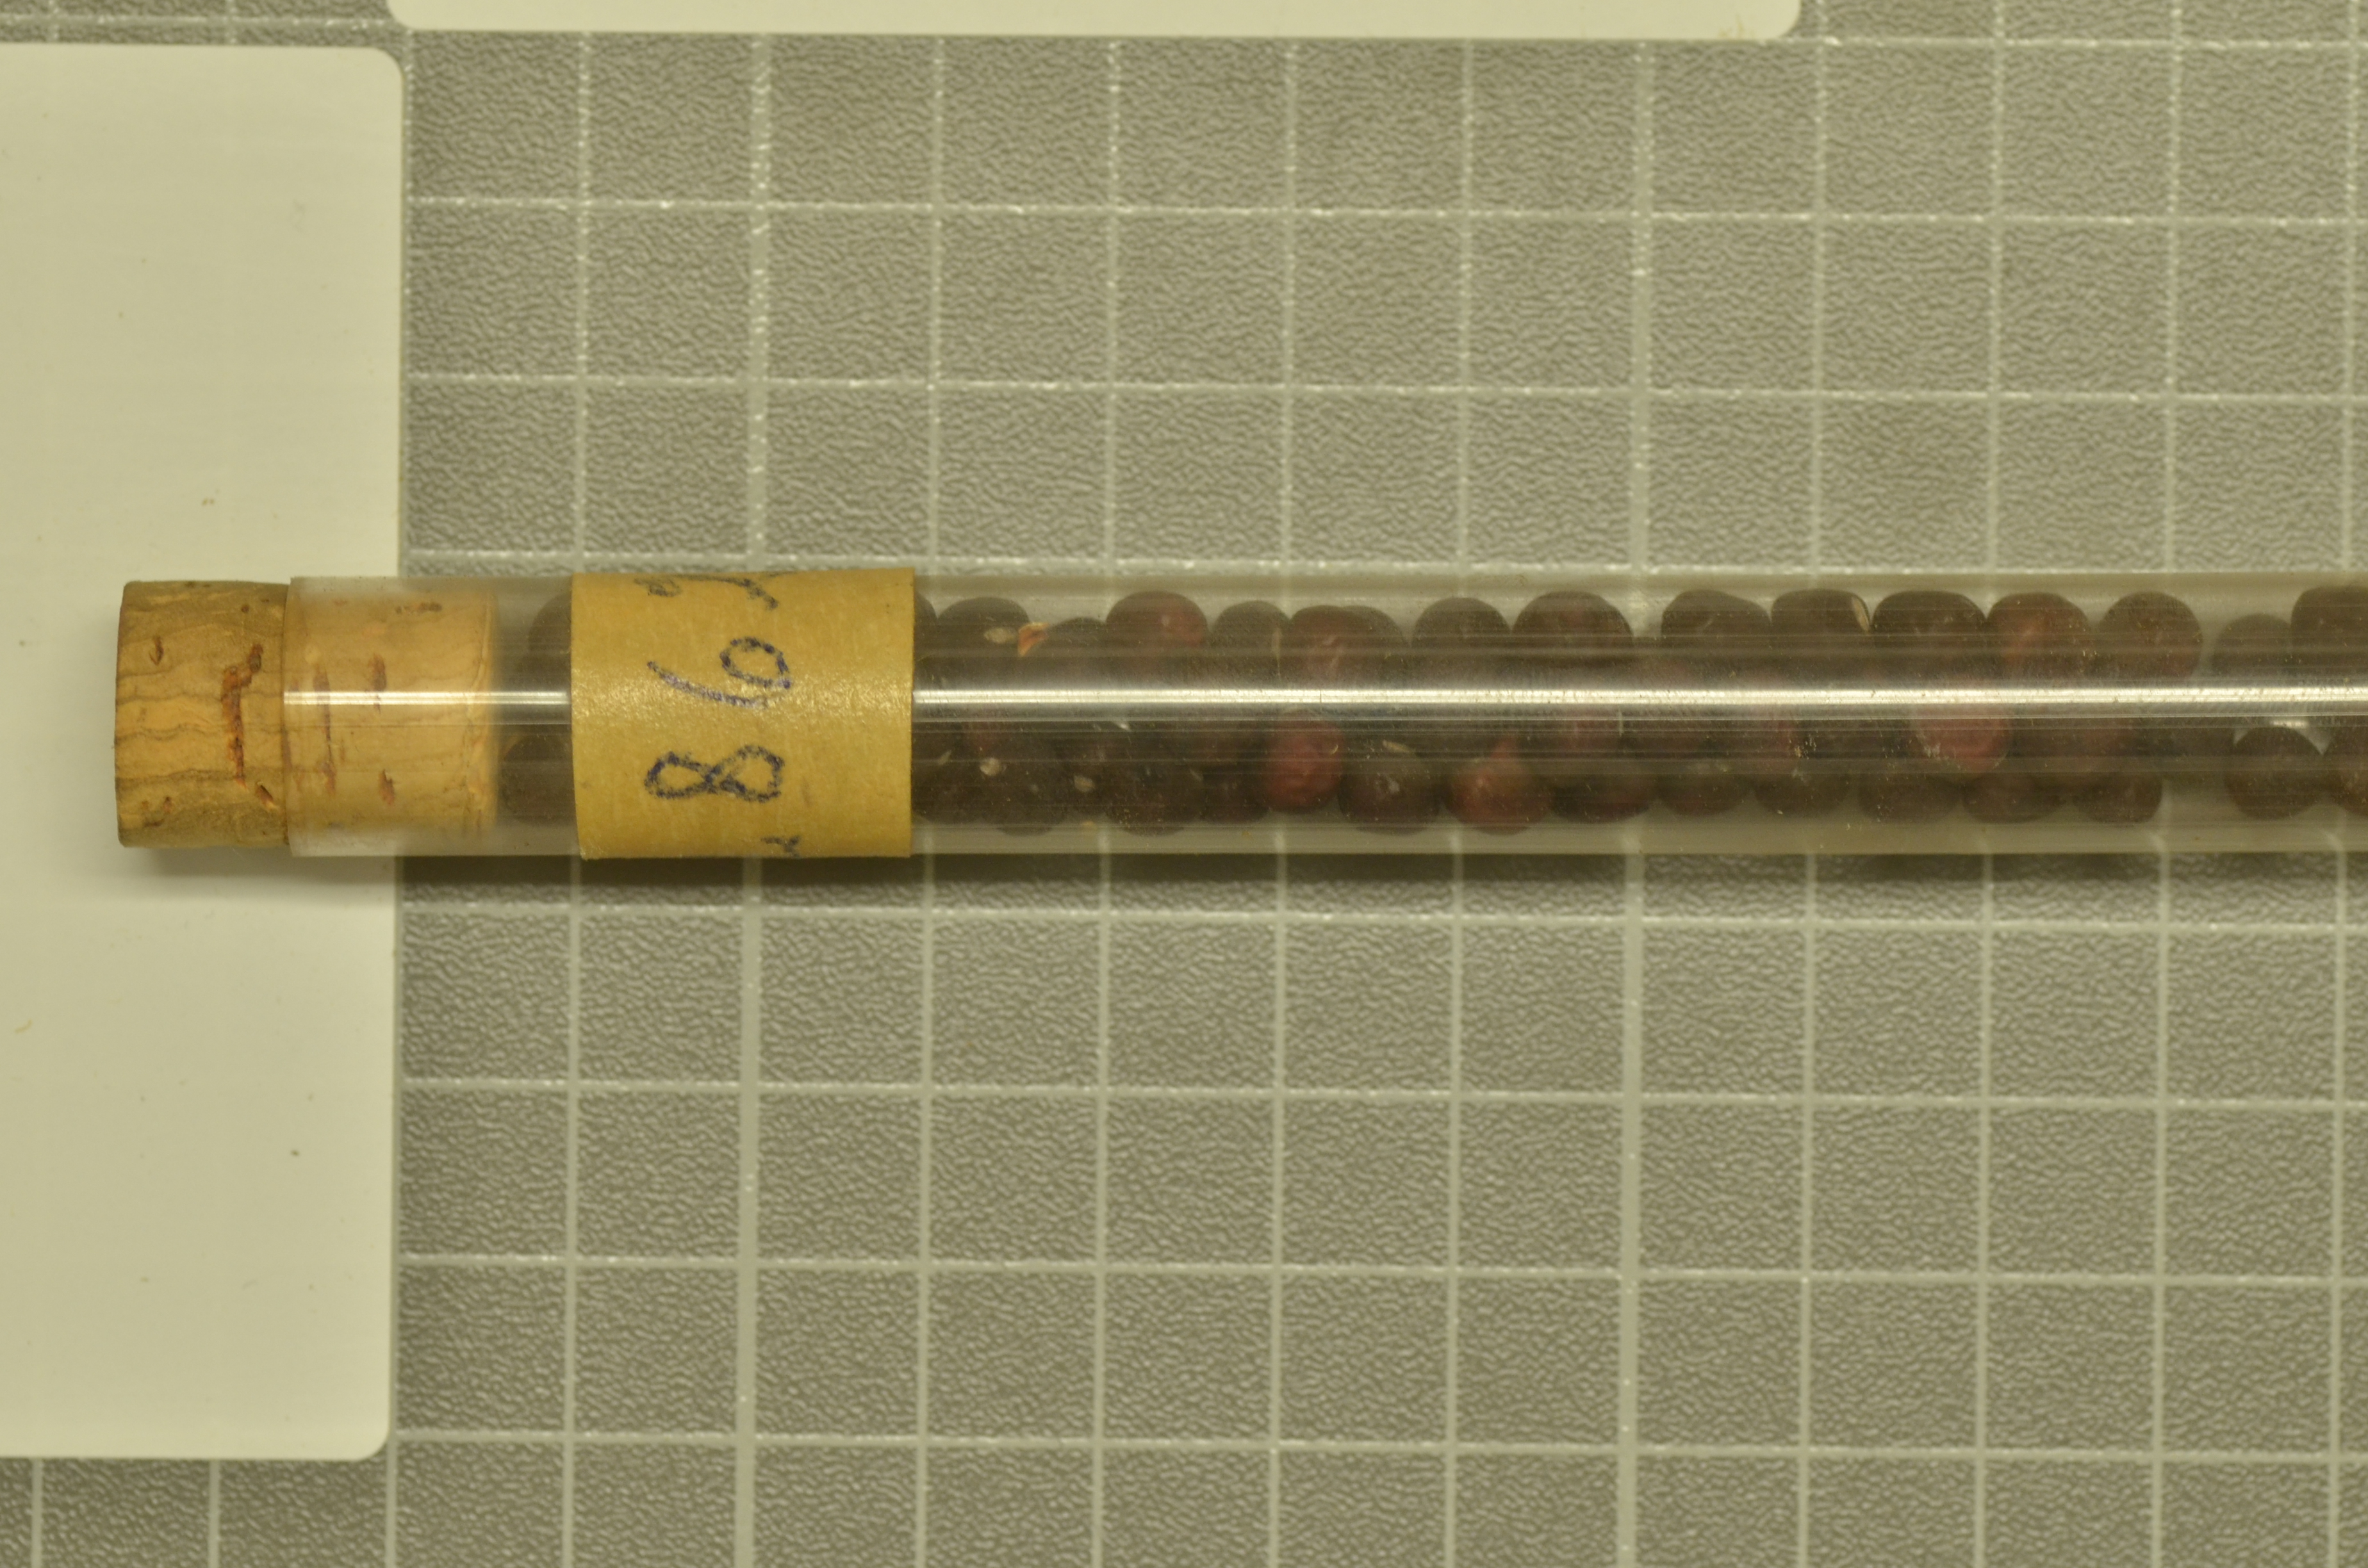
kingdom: Plantae
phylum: Tracheophyta
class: Magnoliopsida
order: Fabales
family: Fabaceae
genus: Lathyrus
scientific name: Lathyrus oleraceus
